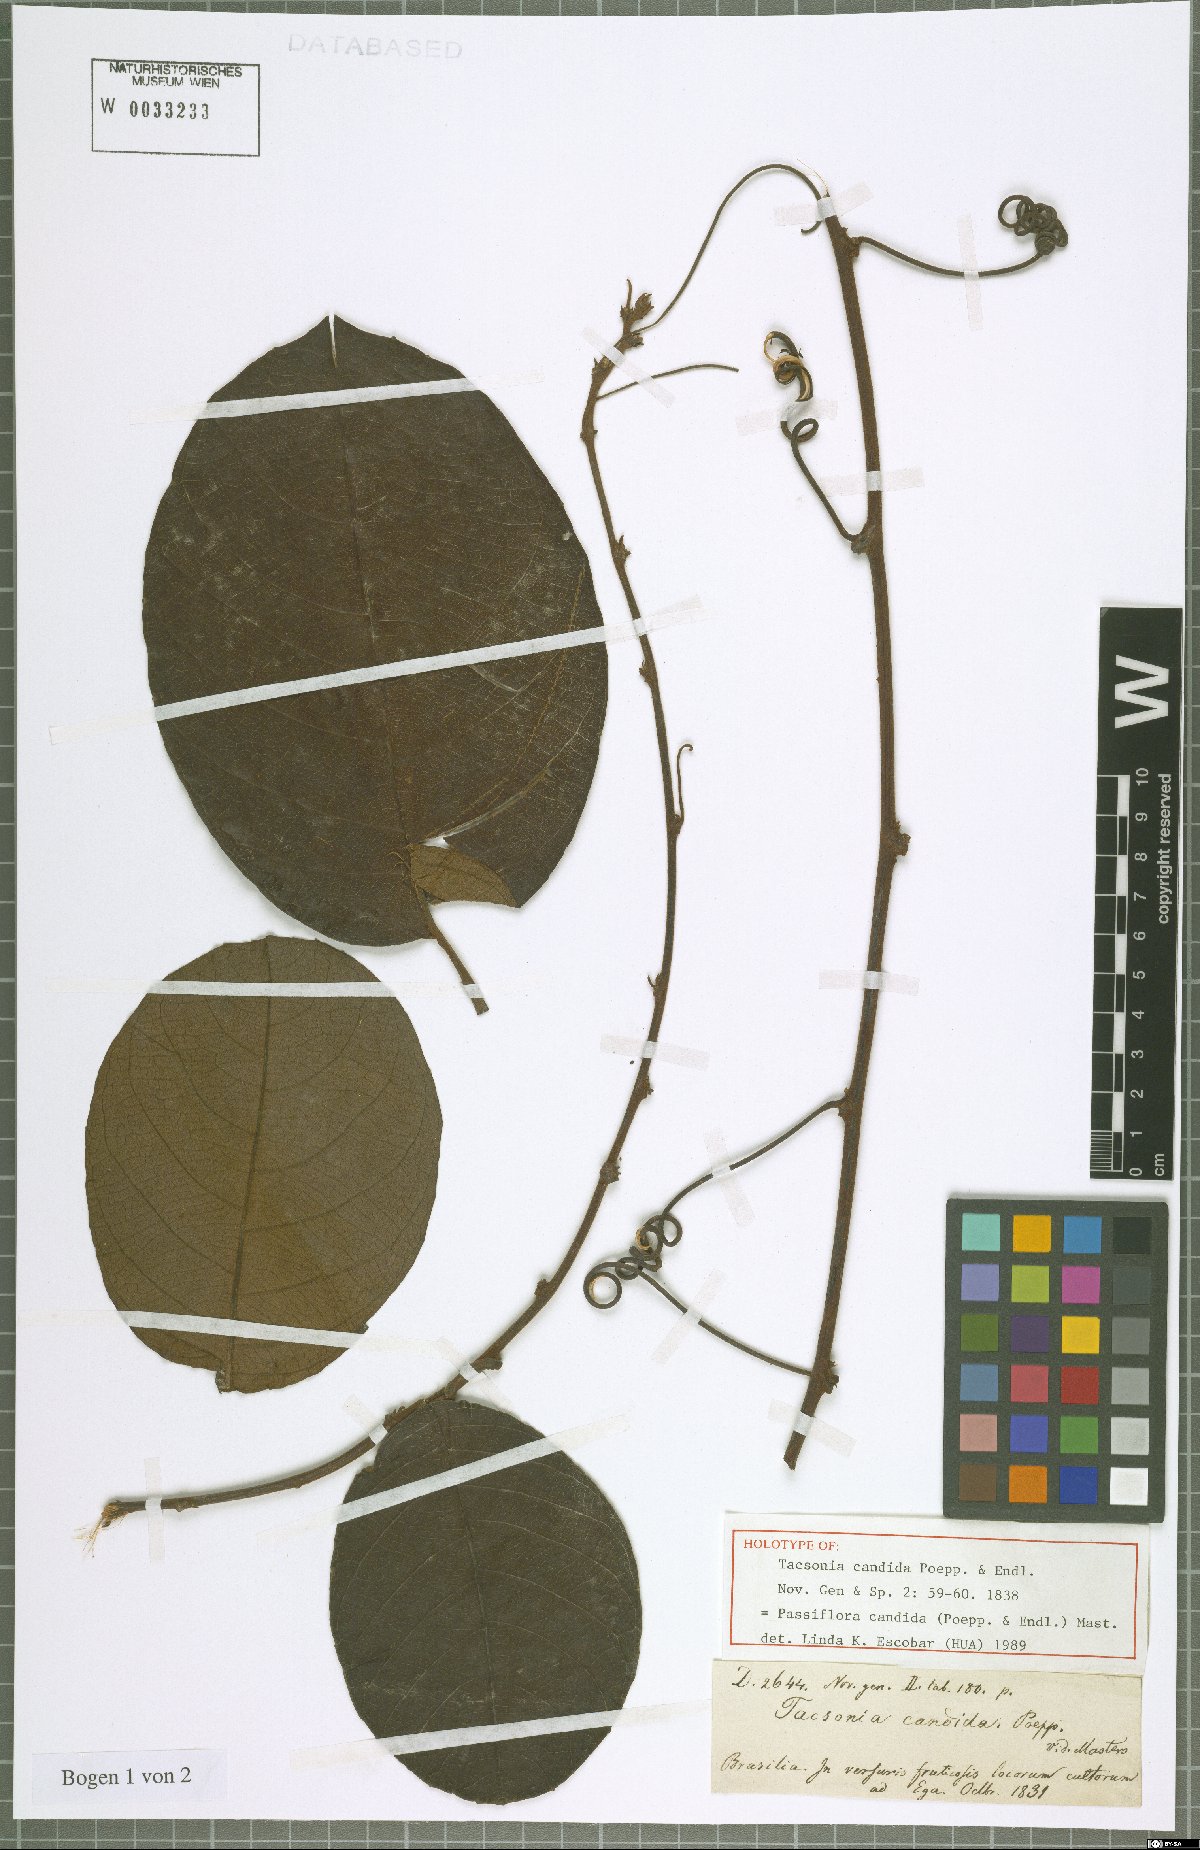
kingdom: Plantae
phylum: Tracheophyta
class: Magnoliopsida
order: Malpighiales
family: Passifloraceae
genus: Passiflora
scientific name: Passiflora candida
